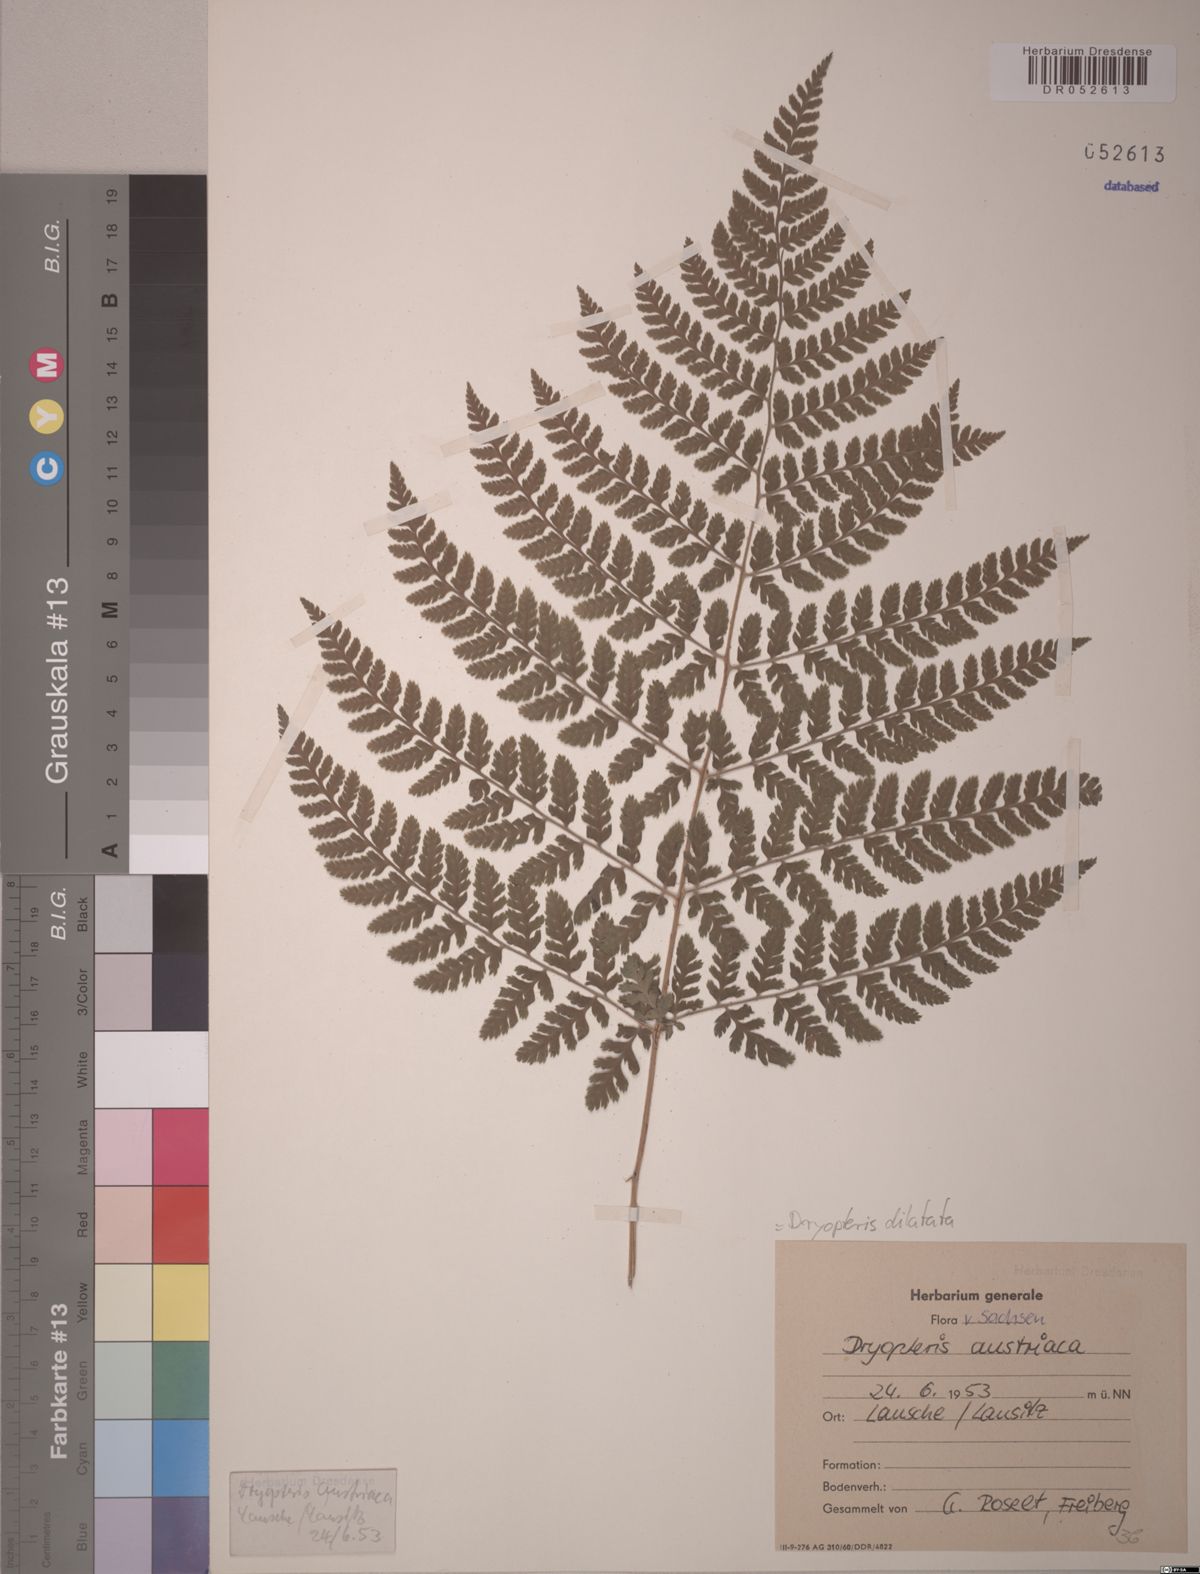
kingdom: Plantae
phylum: Tracheophyta
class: Polypodiopsida
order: Polypodiales
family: Dryopteridaceae
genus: Dryopteris
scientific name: Dryopteris dilatata
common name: Broad buckler-fern
